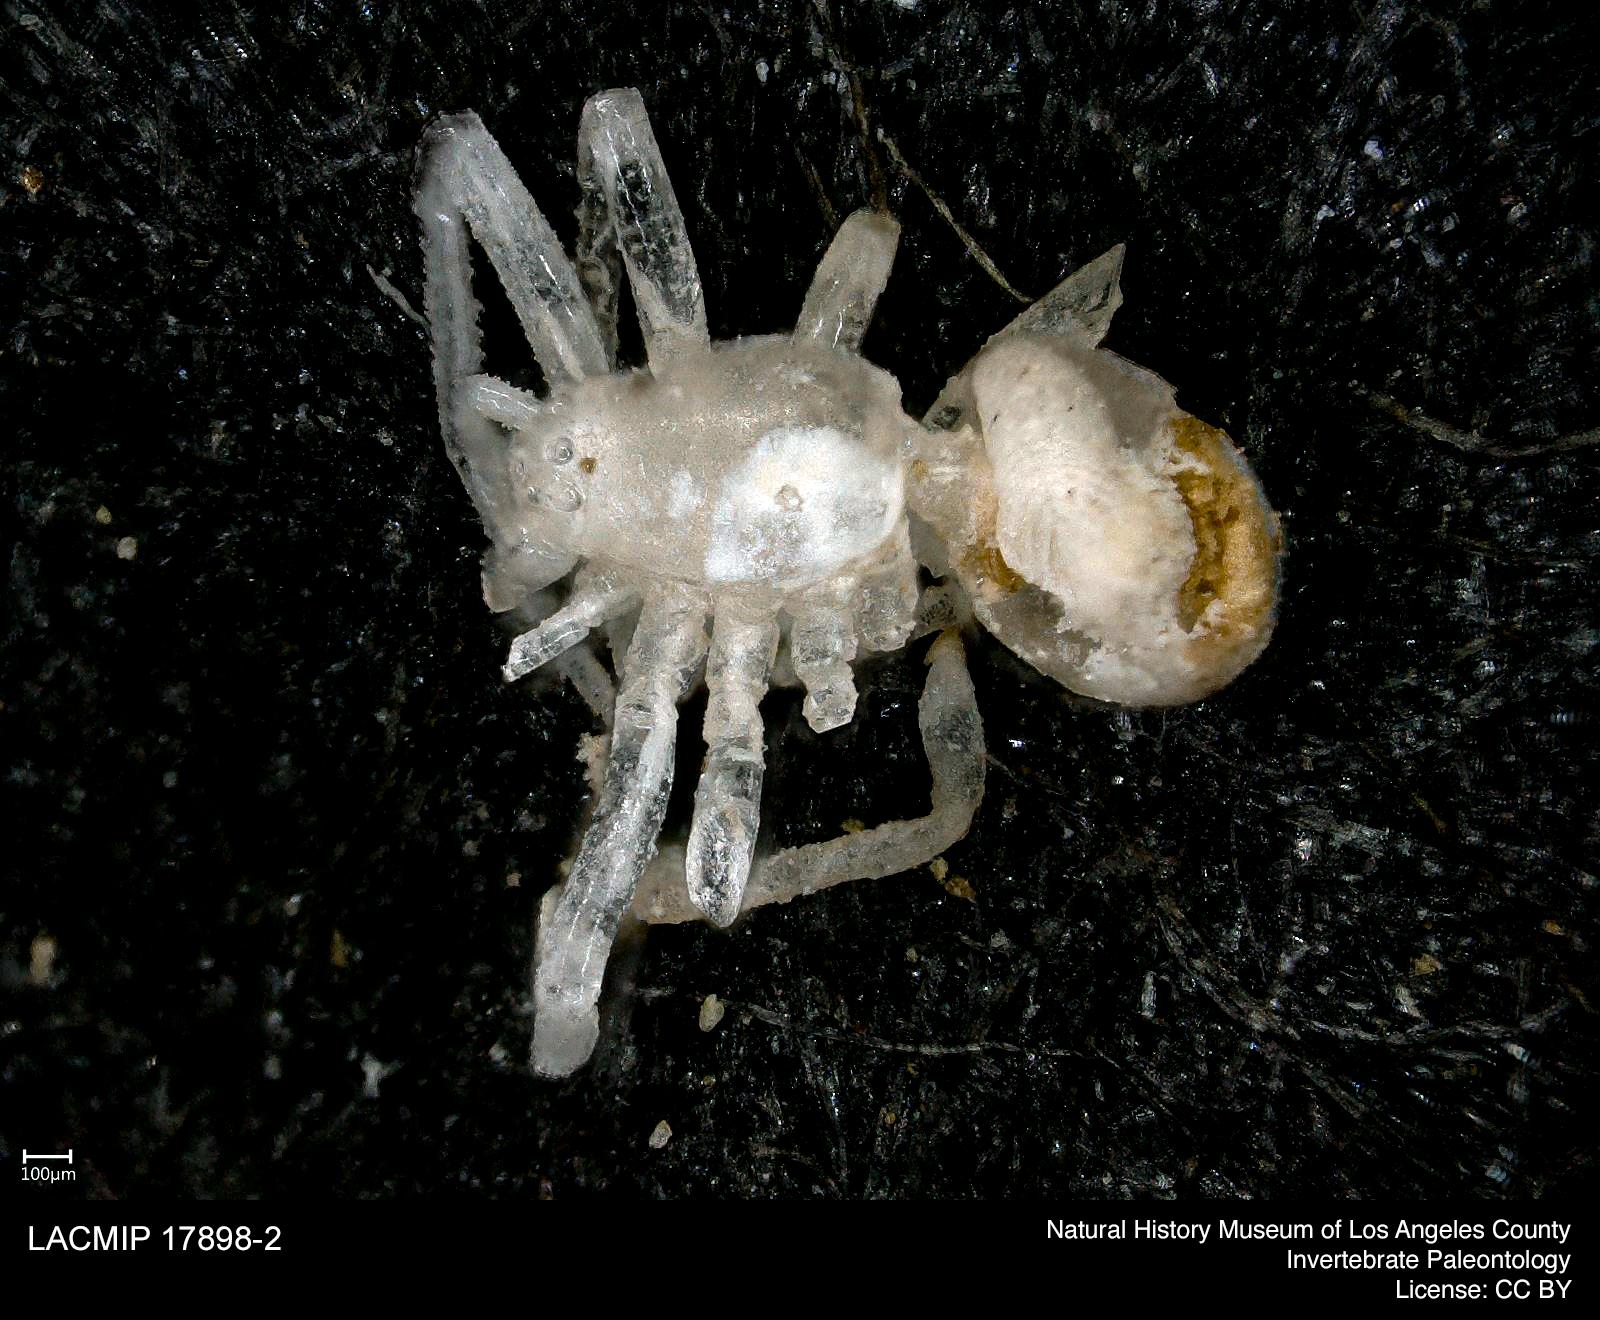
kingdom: Animalia
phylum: Arthropoda
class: Arachnida
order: Araneae
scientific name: Araneae
